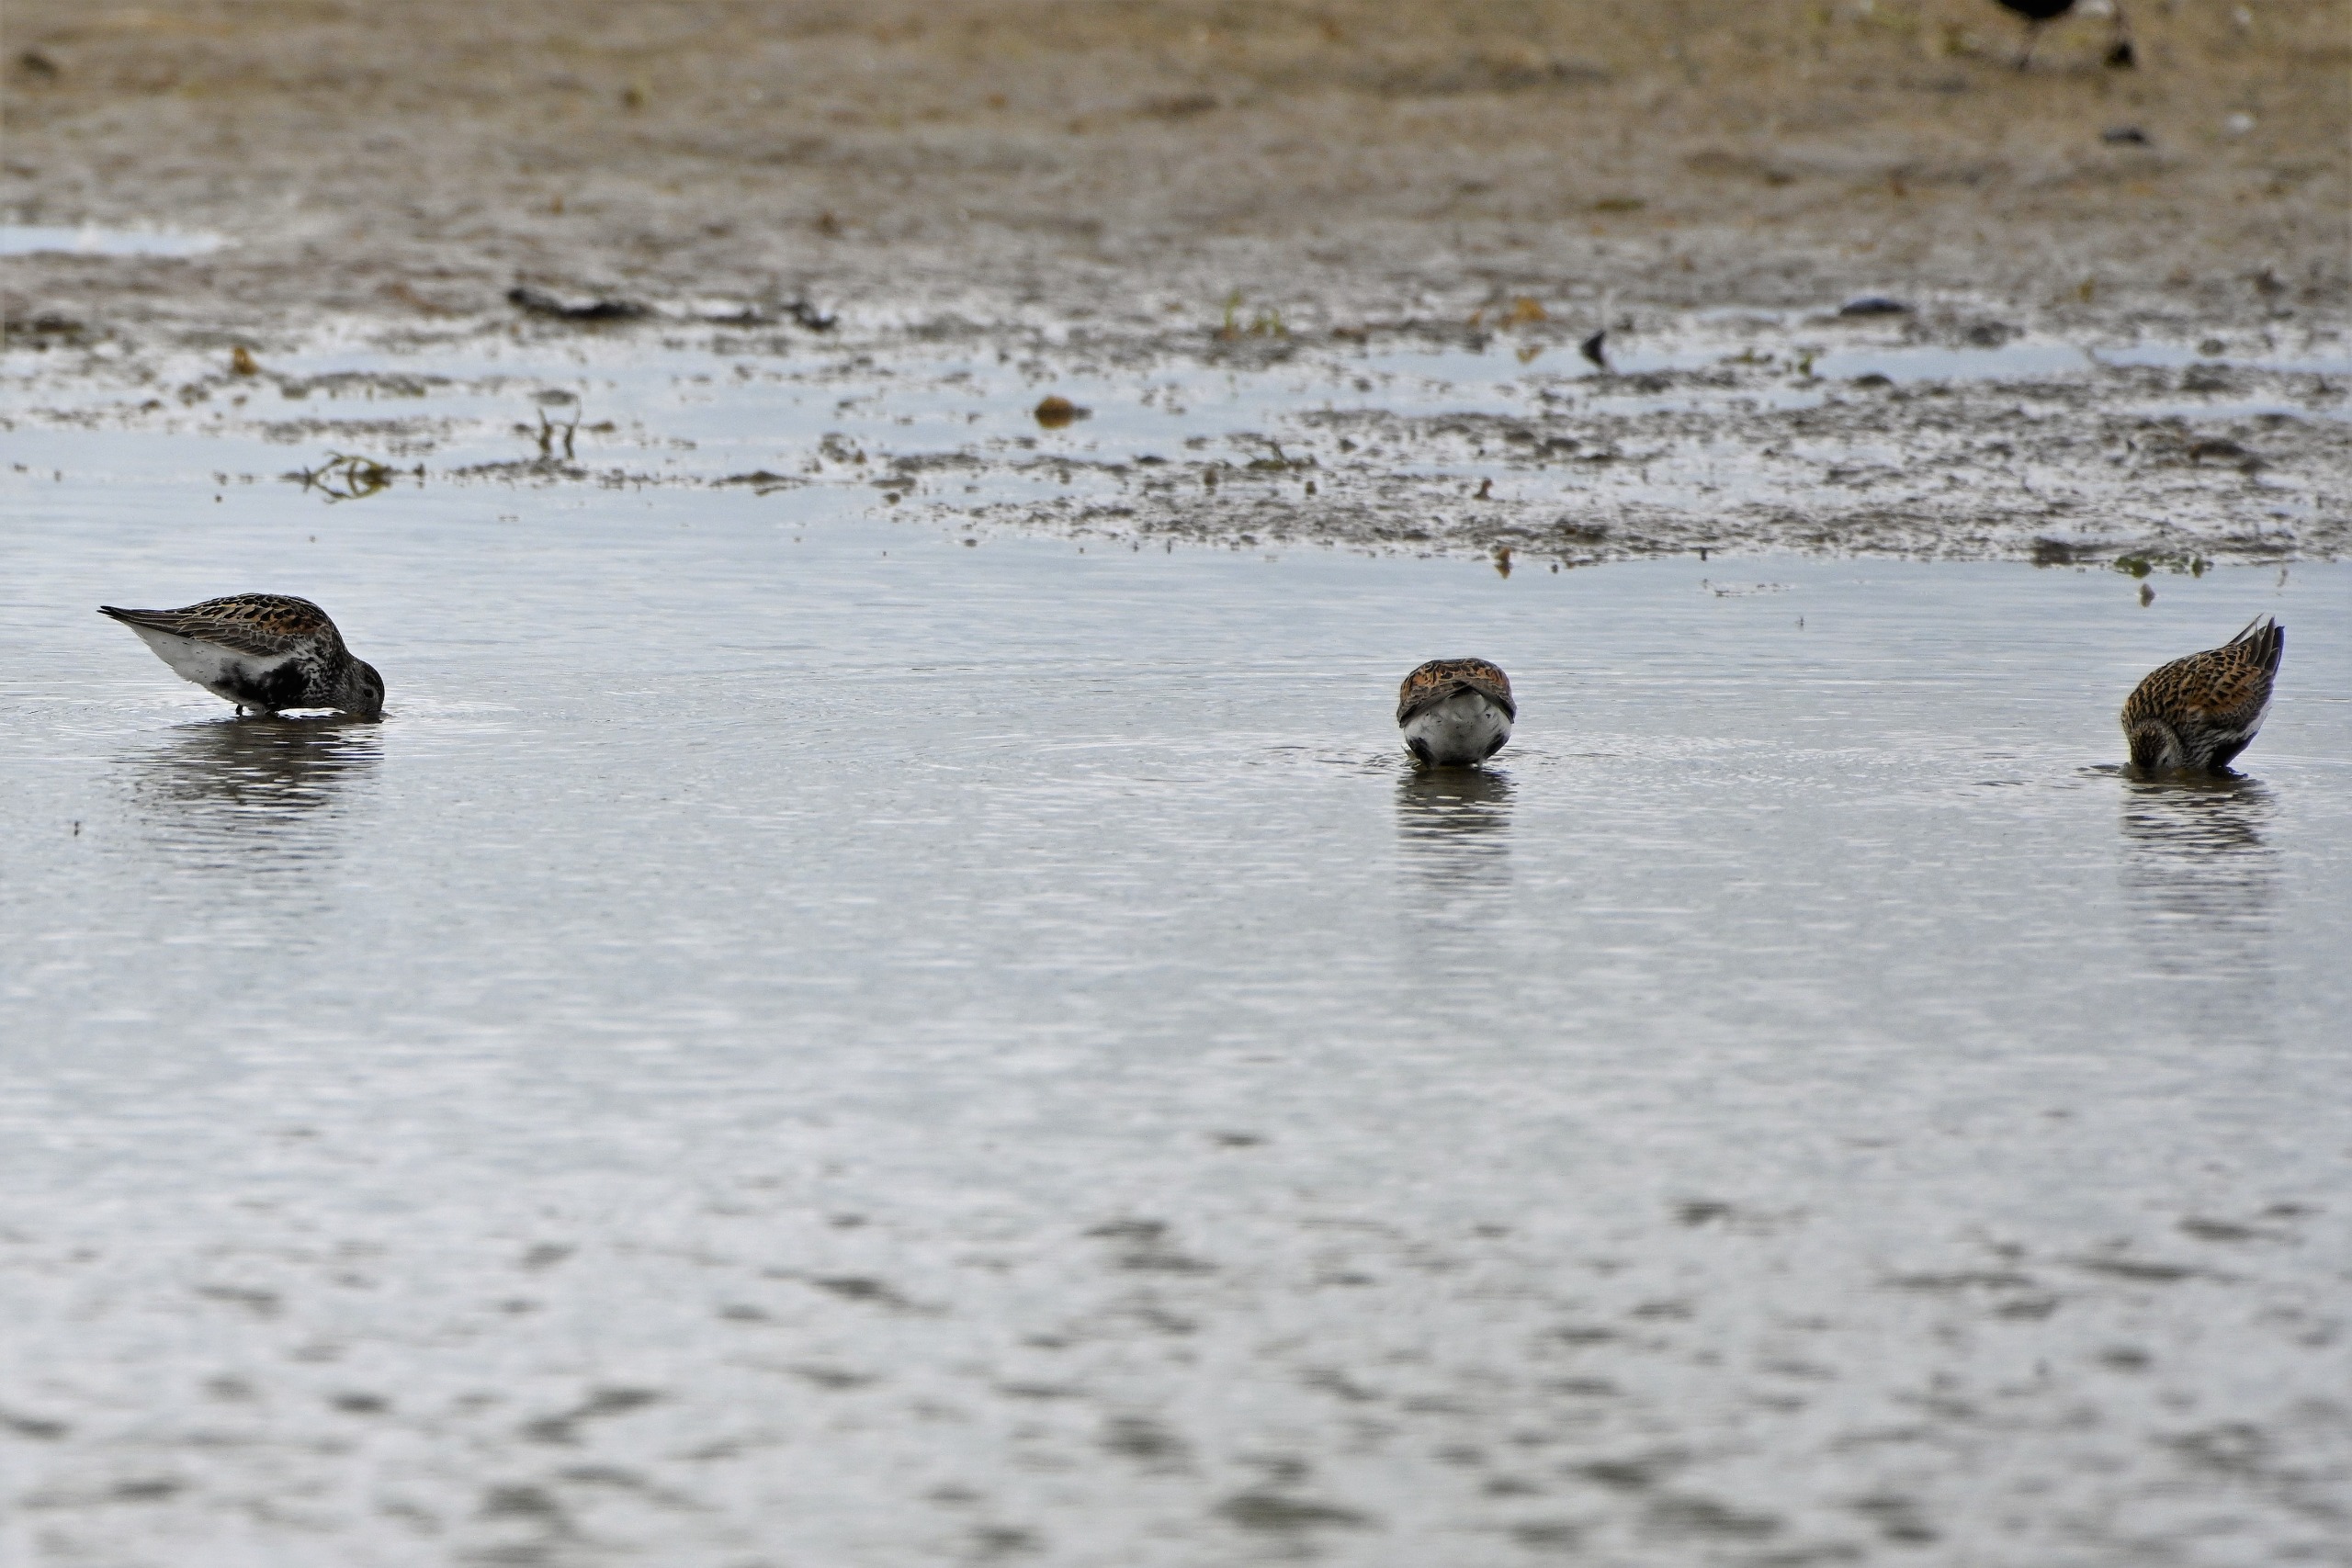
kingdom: Animalia
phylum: Chordata
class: Aves
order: Charadriiformes
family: Scolopacidae
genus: Calidris
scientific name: Calidris alpina
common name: Almindelig ryle
